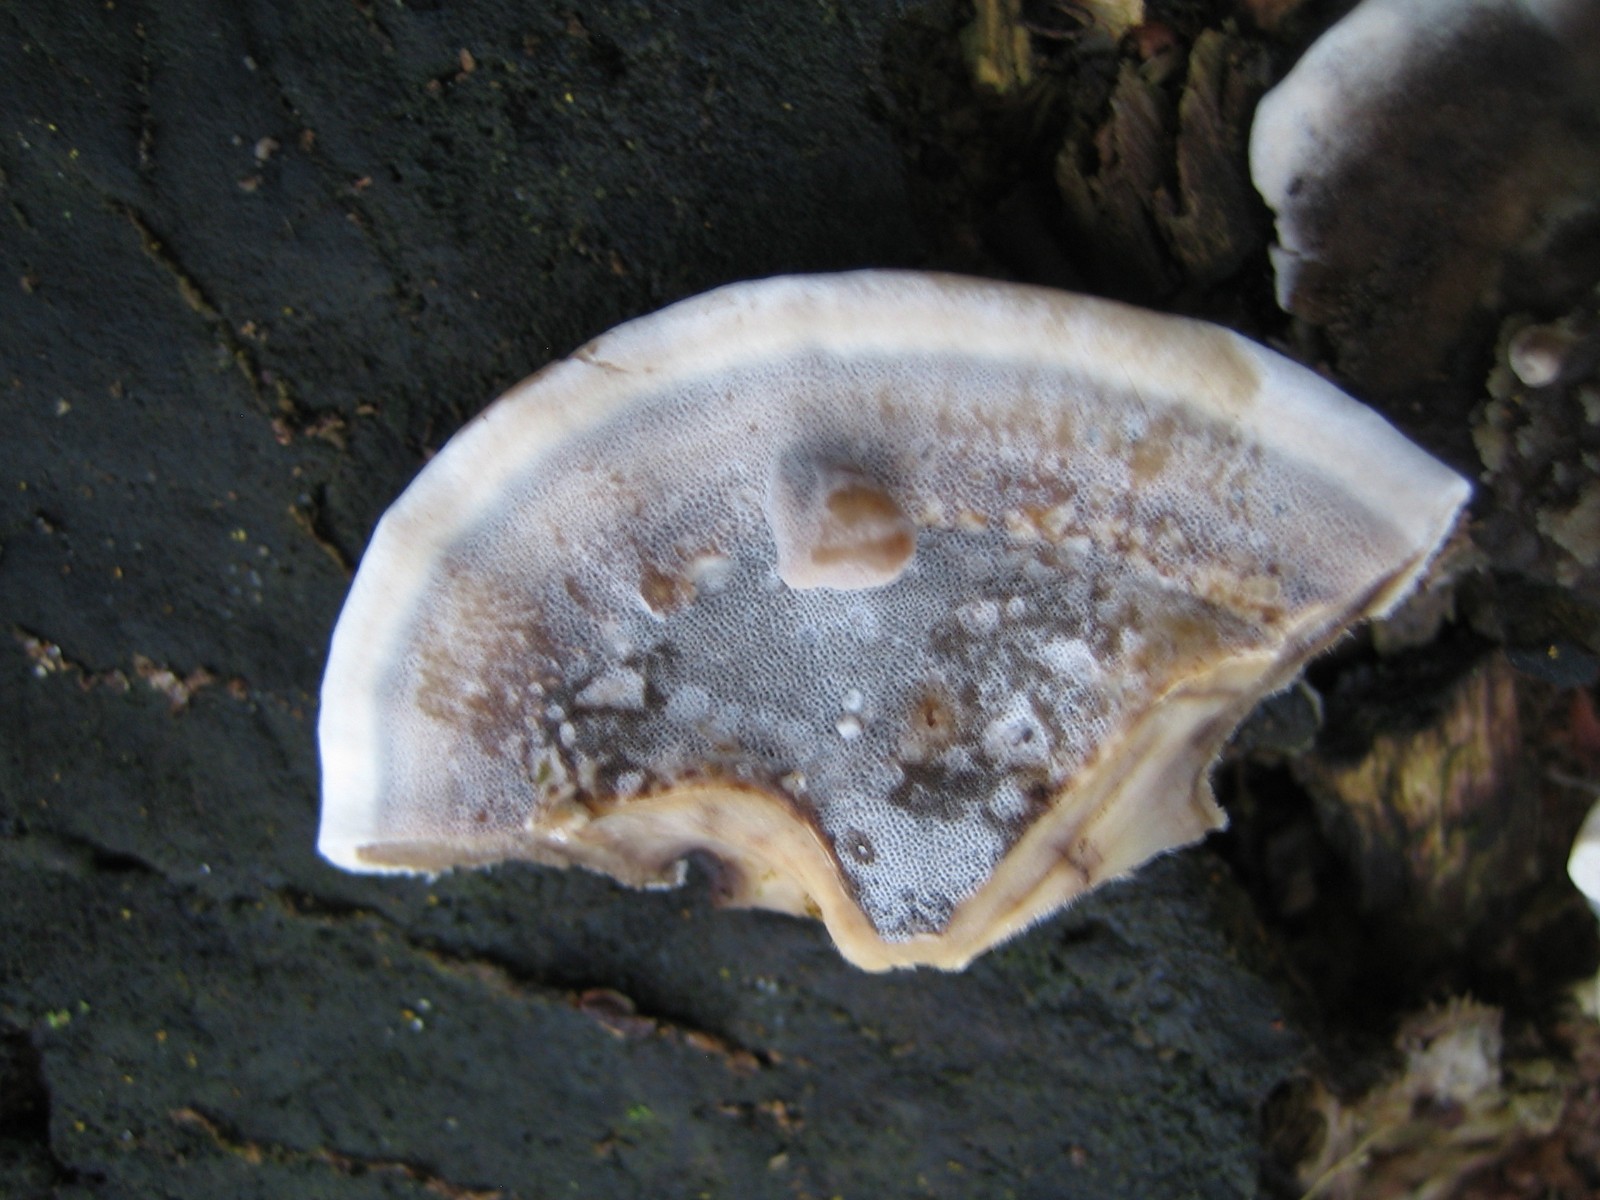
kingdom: Fungi
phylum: Basidiomycota
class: Agaricomycetes
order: Polyporales
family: Phanerochaetaceae
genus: Bjerkandera
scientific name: Bjerkandera adusta
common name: sveden sodporesvamp
